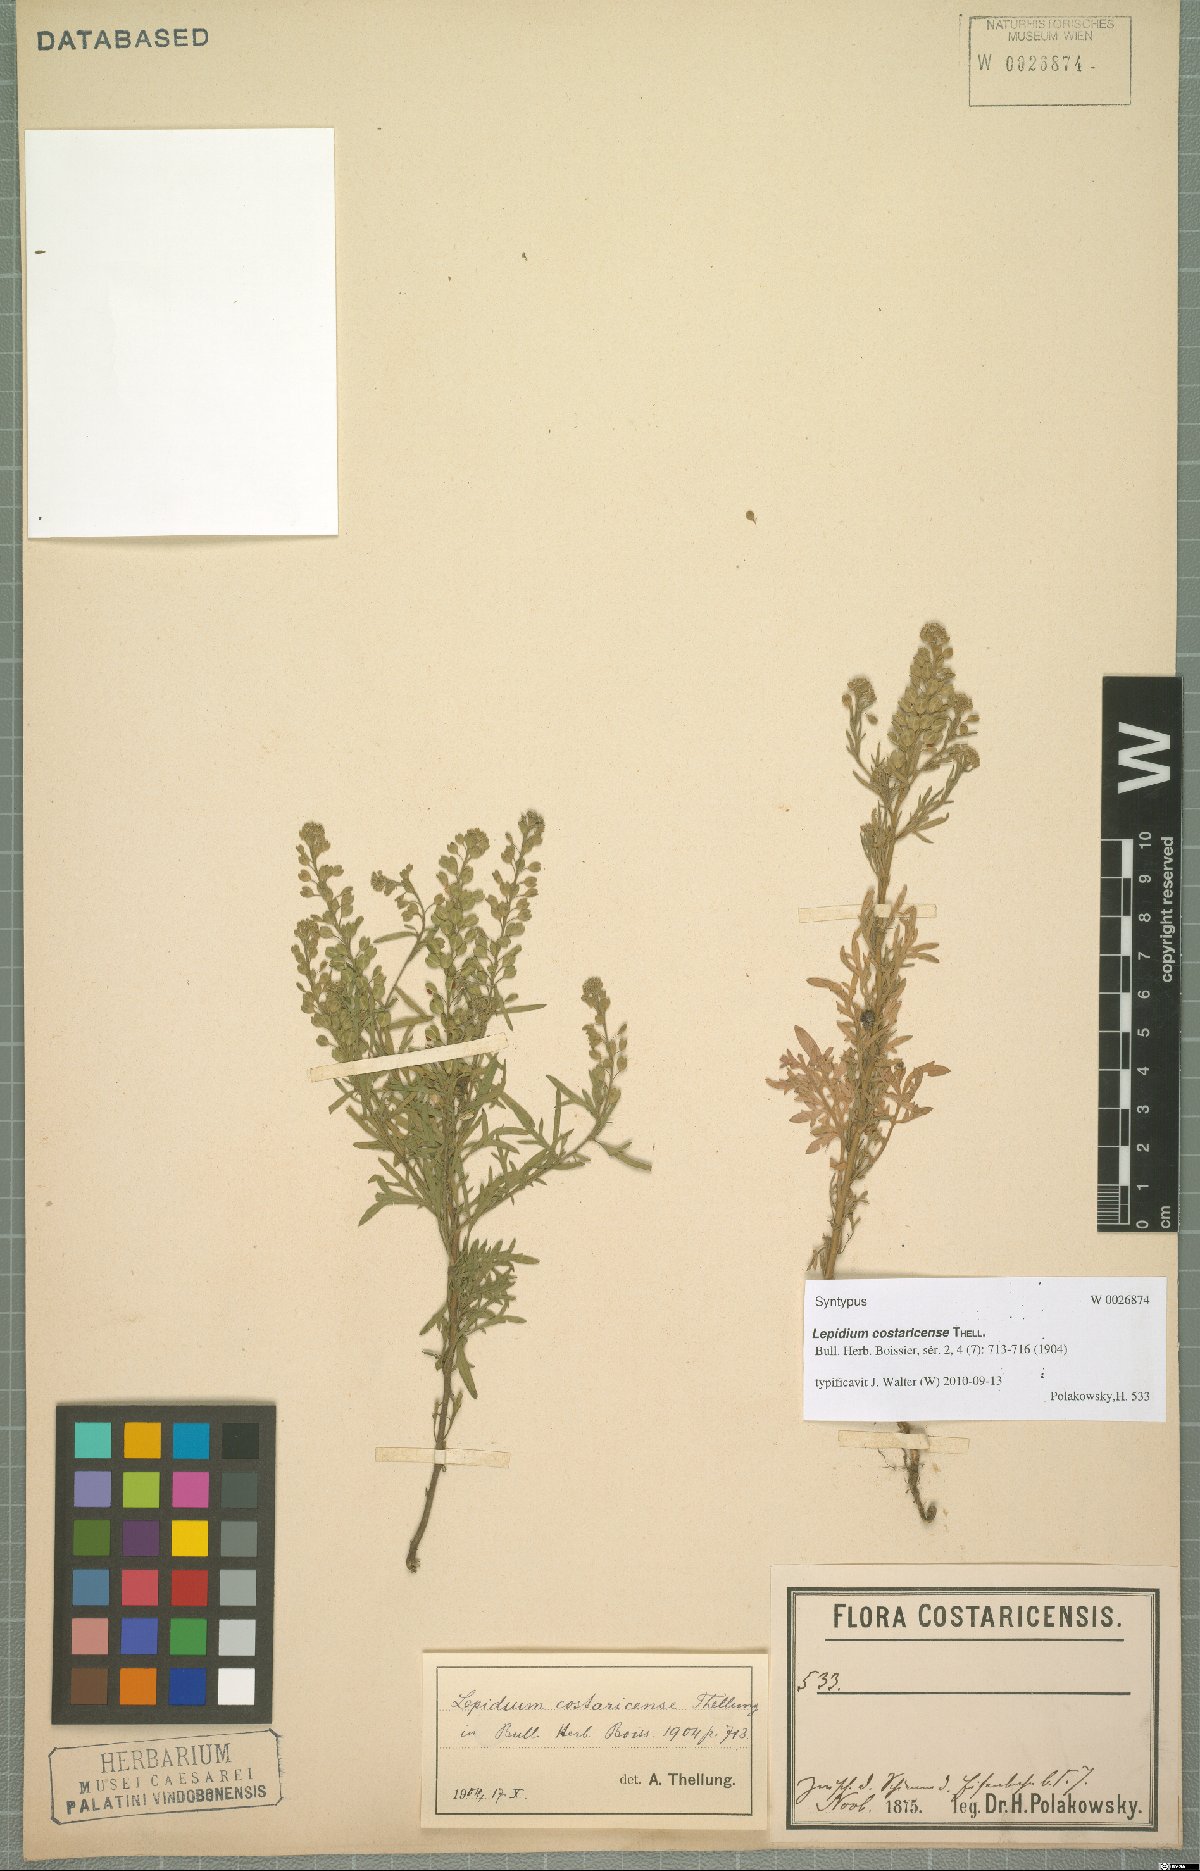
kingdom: Plantae
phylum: Tracheophyta
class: Magnoliopsida
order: Brassicales
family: Brassicaceae
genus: Lepidium
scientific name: Lepidium costaricense
